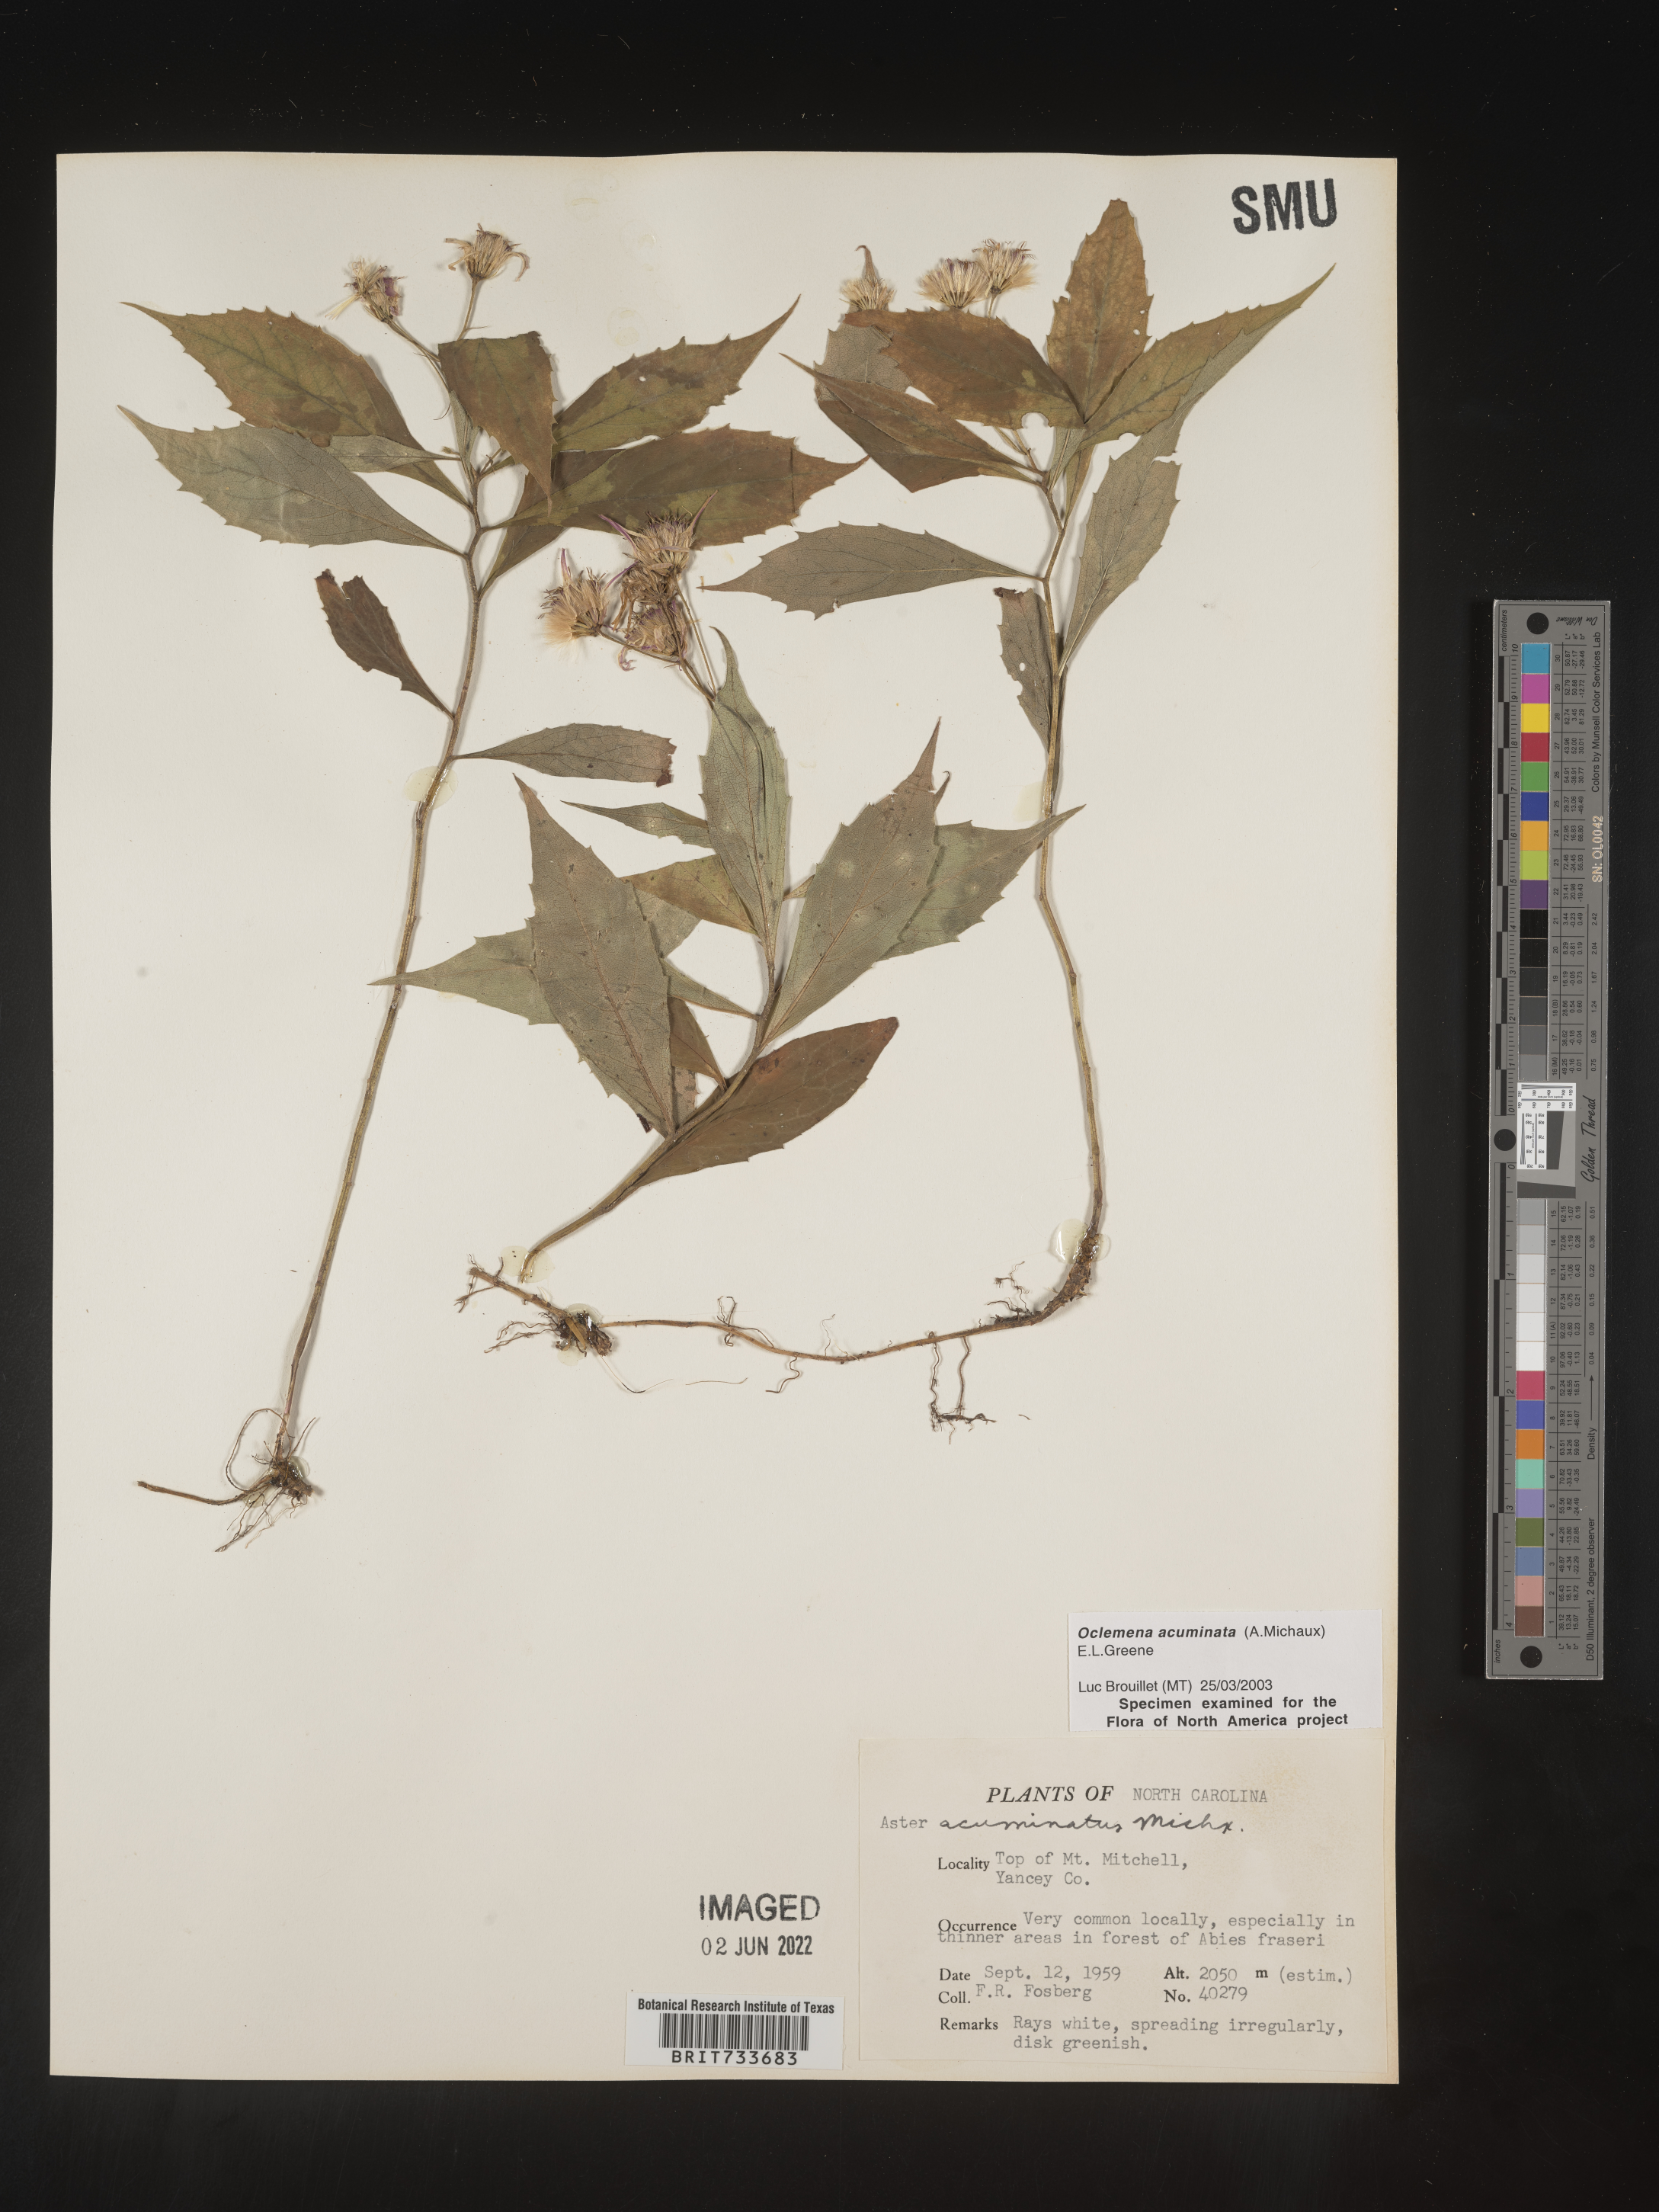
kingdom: Plantae
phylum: Tracheophyta
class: Magnoliopsida
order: Asterales
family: Asteraceae
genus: Oclemena
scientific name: Oclemena acuminata
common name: Mountain aster
